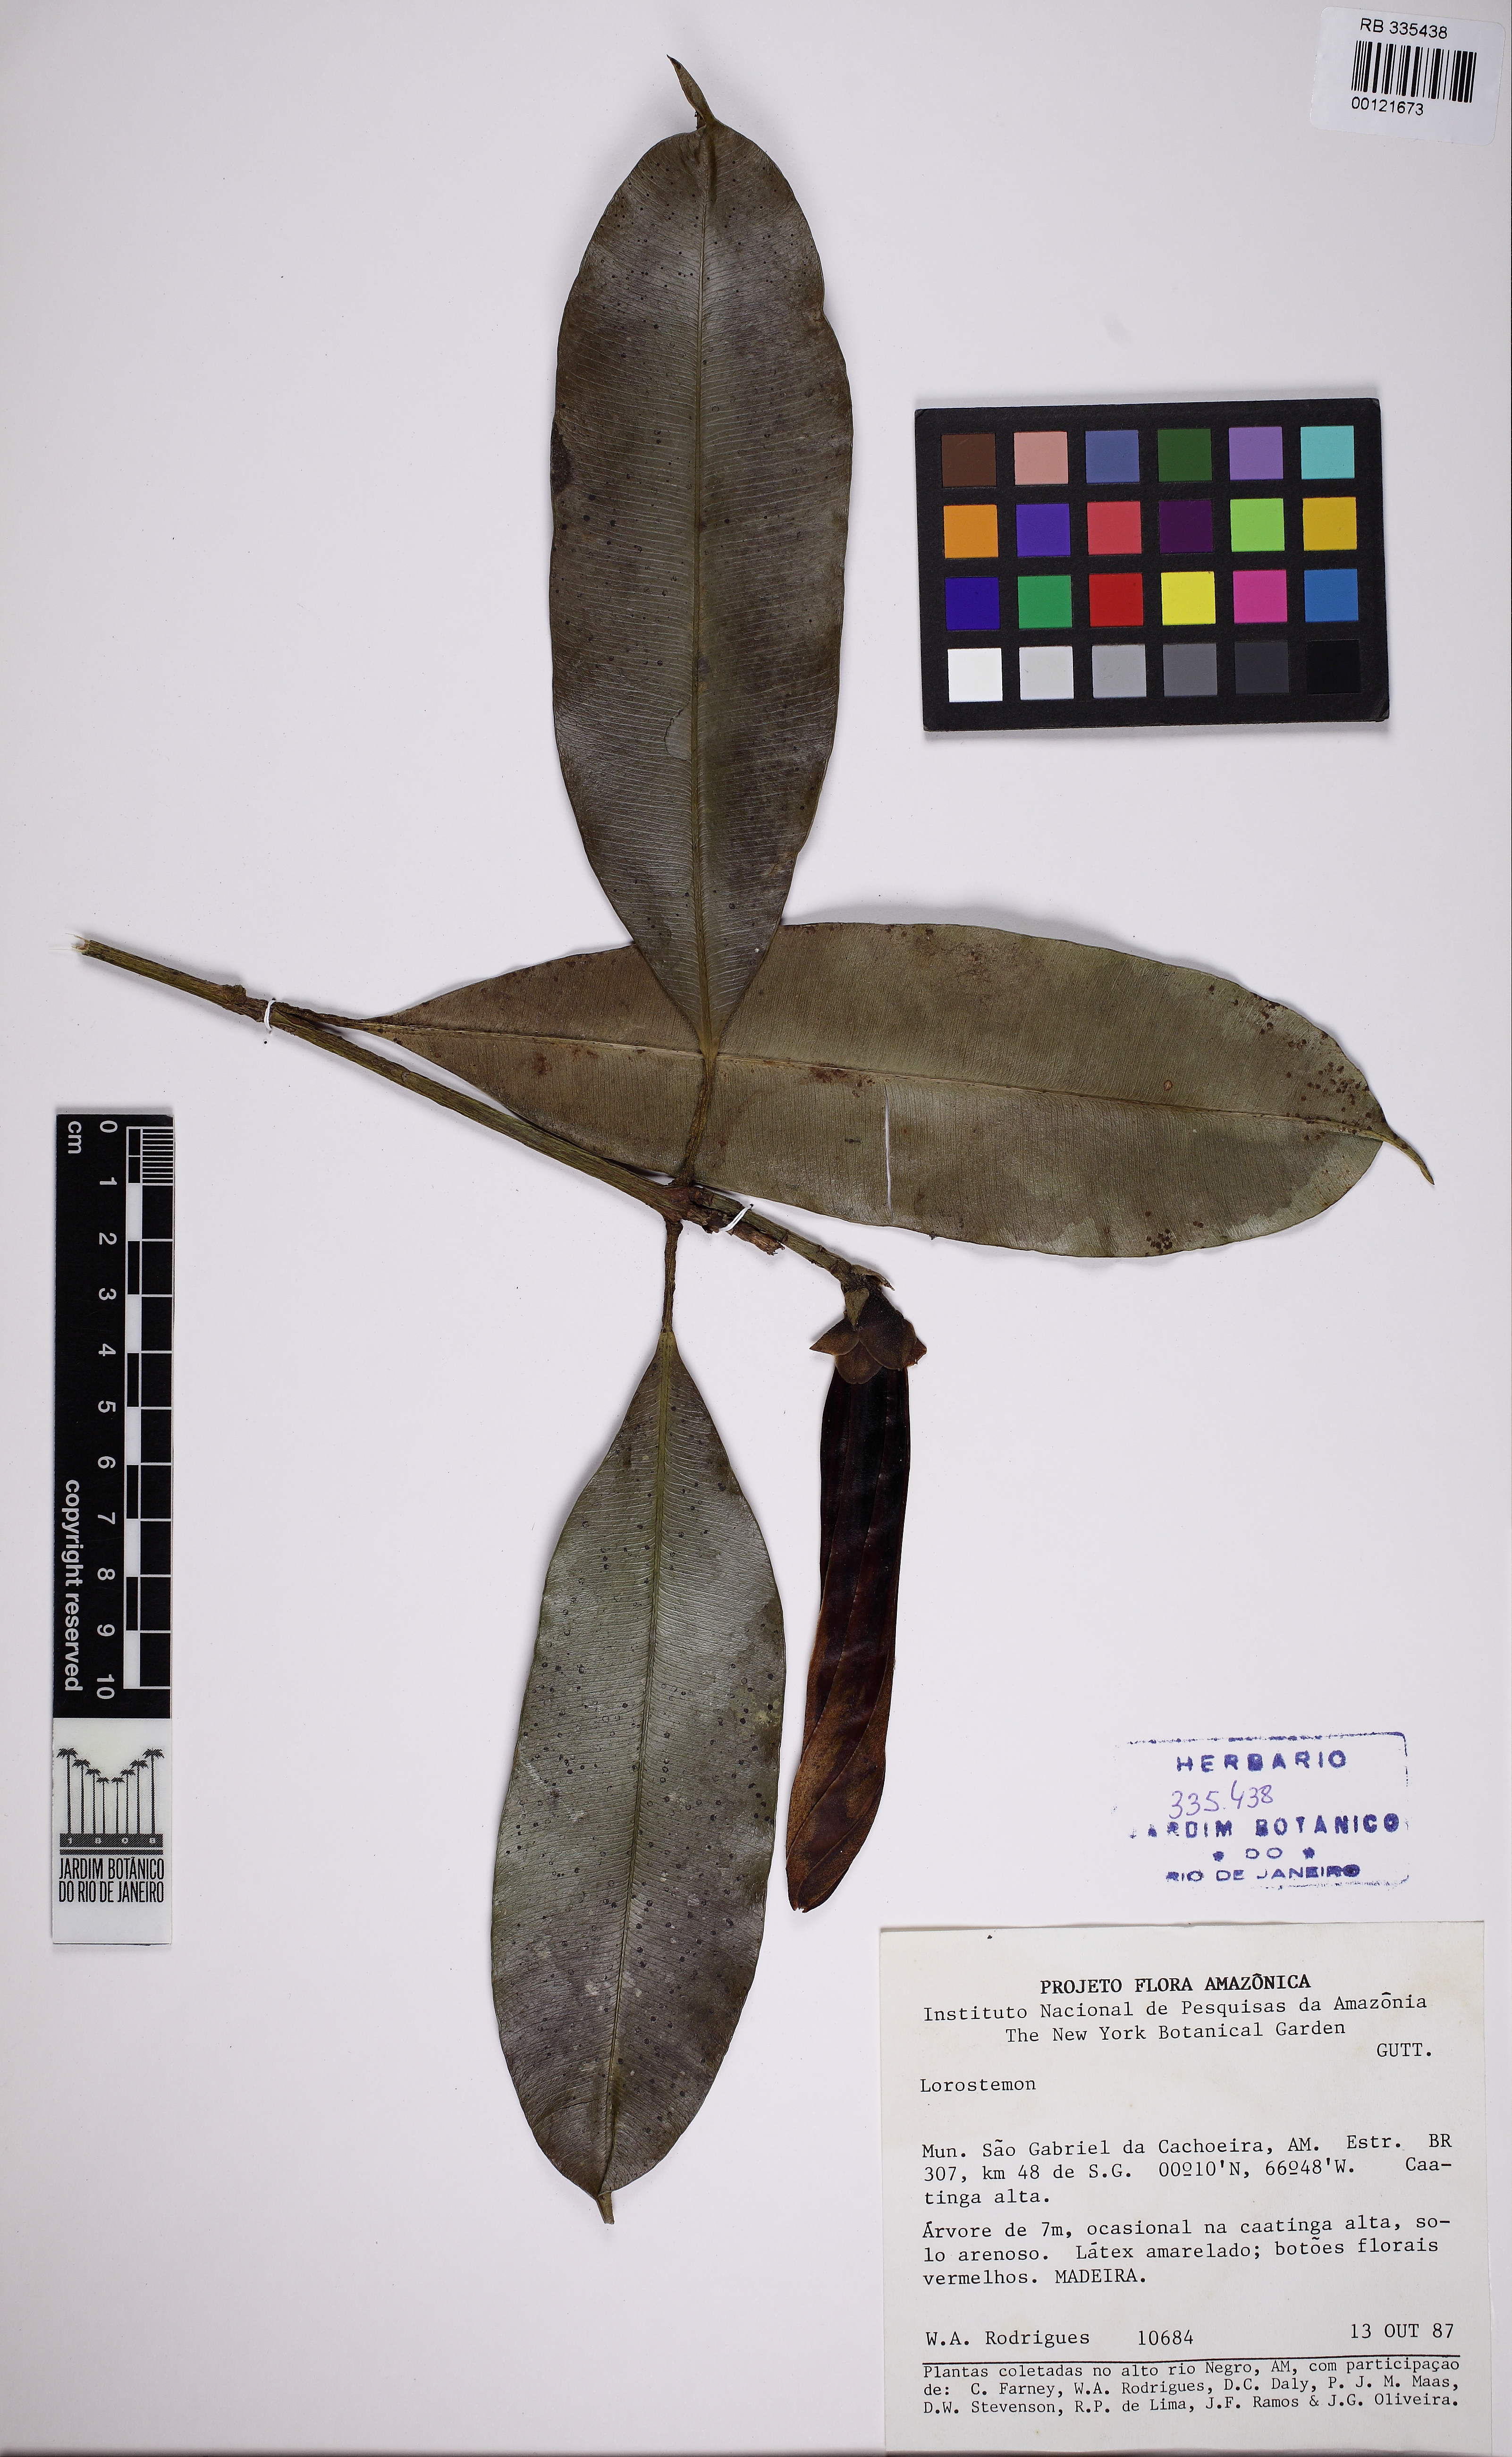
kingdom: Plantae
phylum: Tracheophyta
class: Magnoliopsida
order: Malpighiales
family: Clusiaceae
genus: Lorostemon
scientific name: Lorostemon
